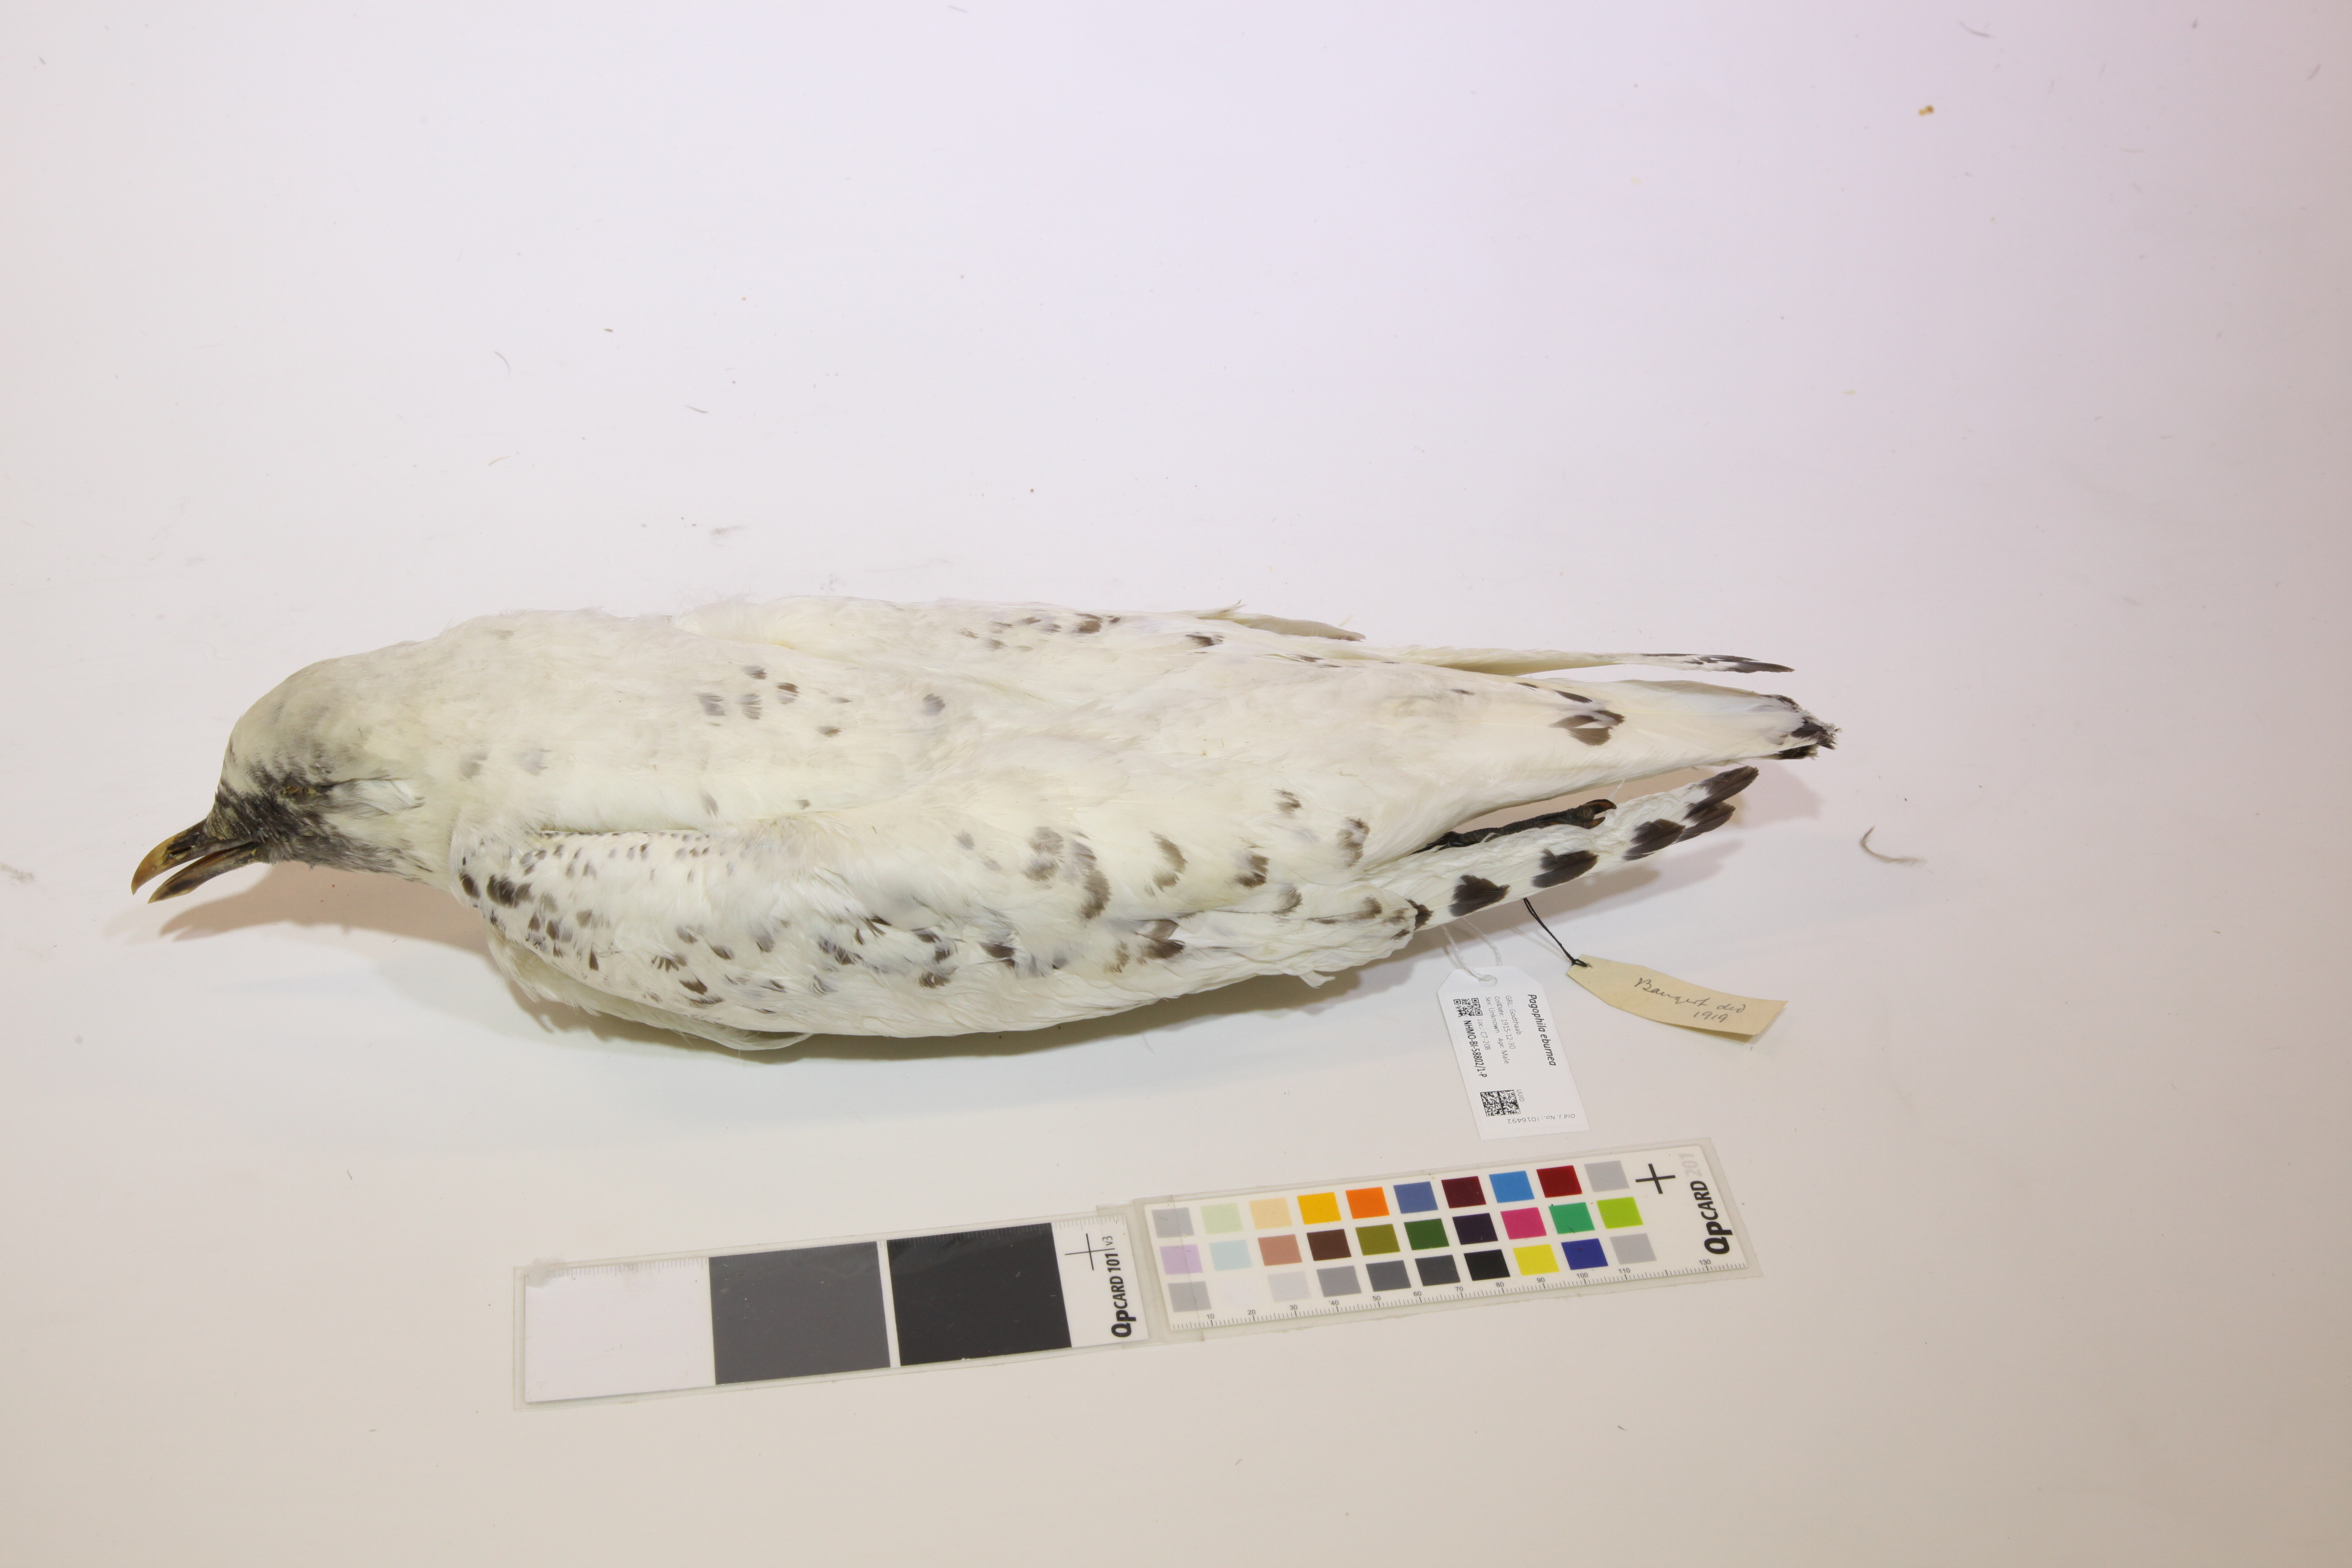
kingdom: Animalia
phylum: Chordata
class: Aves
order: Charadriiformes
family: Laridae
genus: Pagophila
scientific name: Pagophila eburnea
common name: Ivory gull
